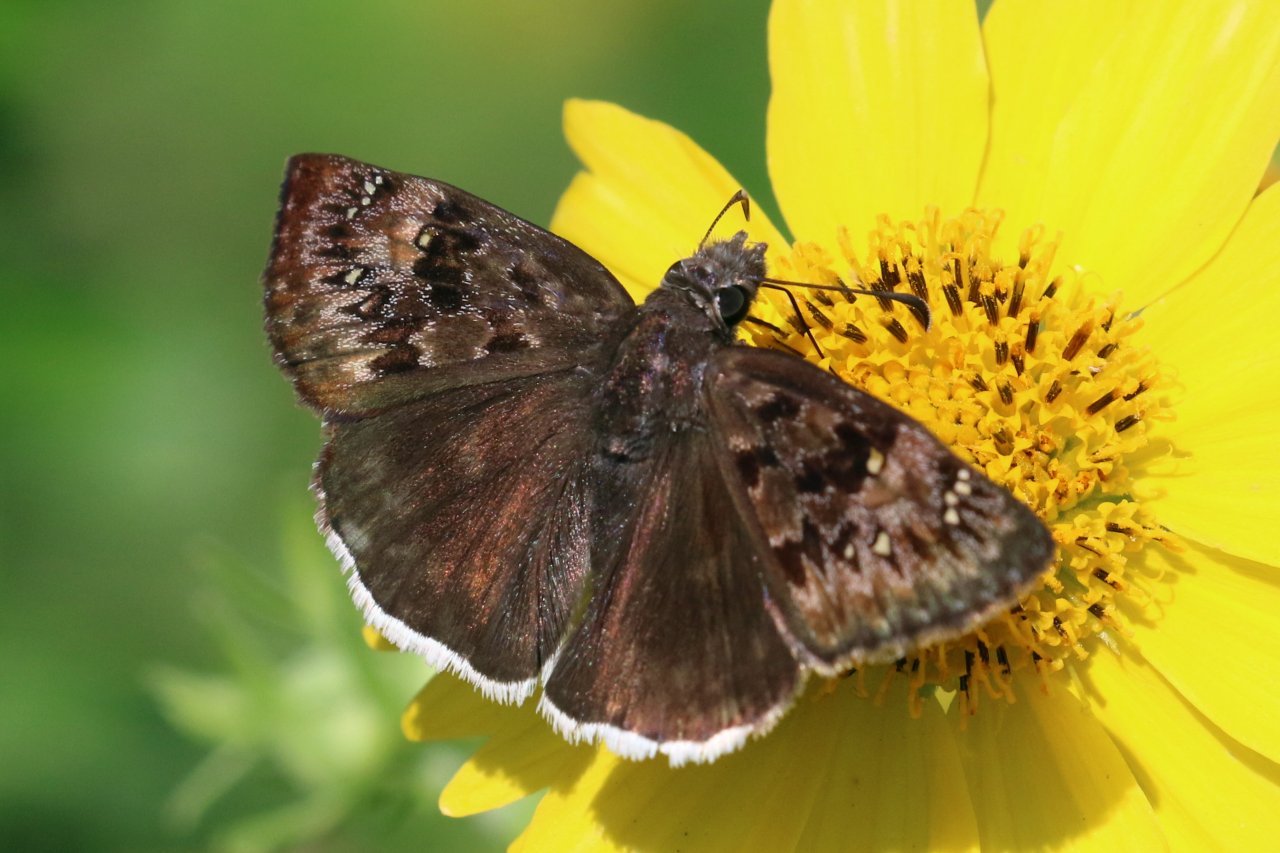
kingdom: Animalia
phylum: Arthropoda
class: Insecta
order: Lepidoptera
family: Hesperiidae
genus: Erynnis
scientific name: Erynnis tristis
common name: Mournful Duskywing
